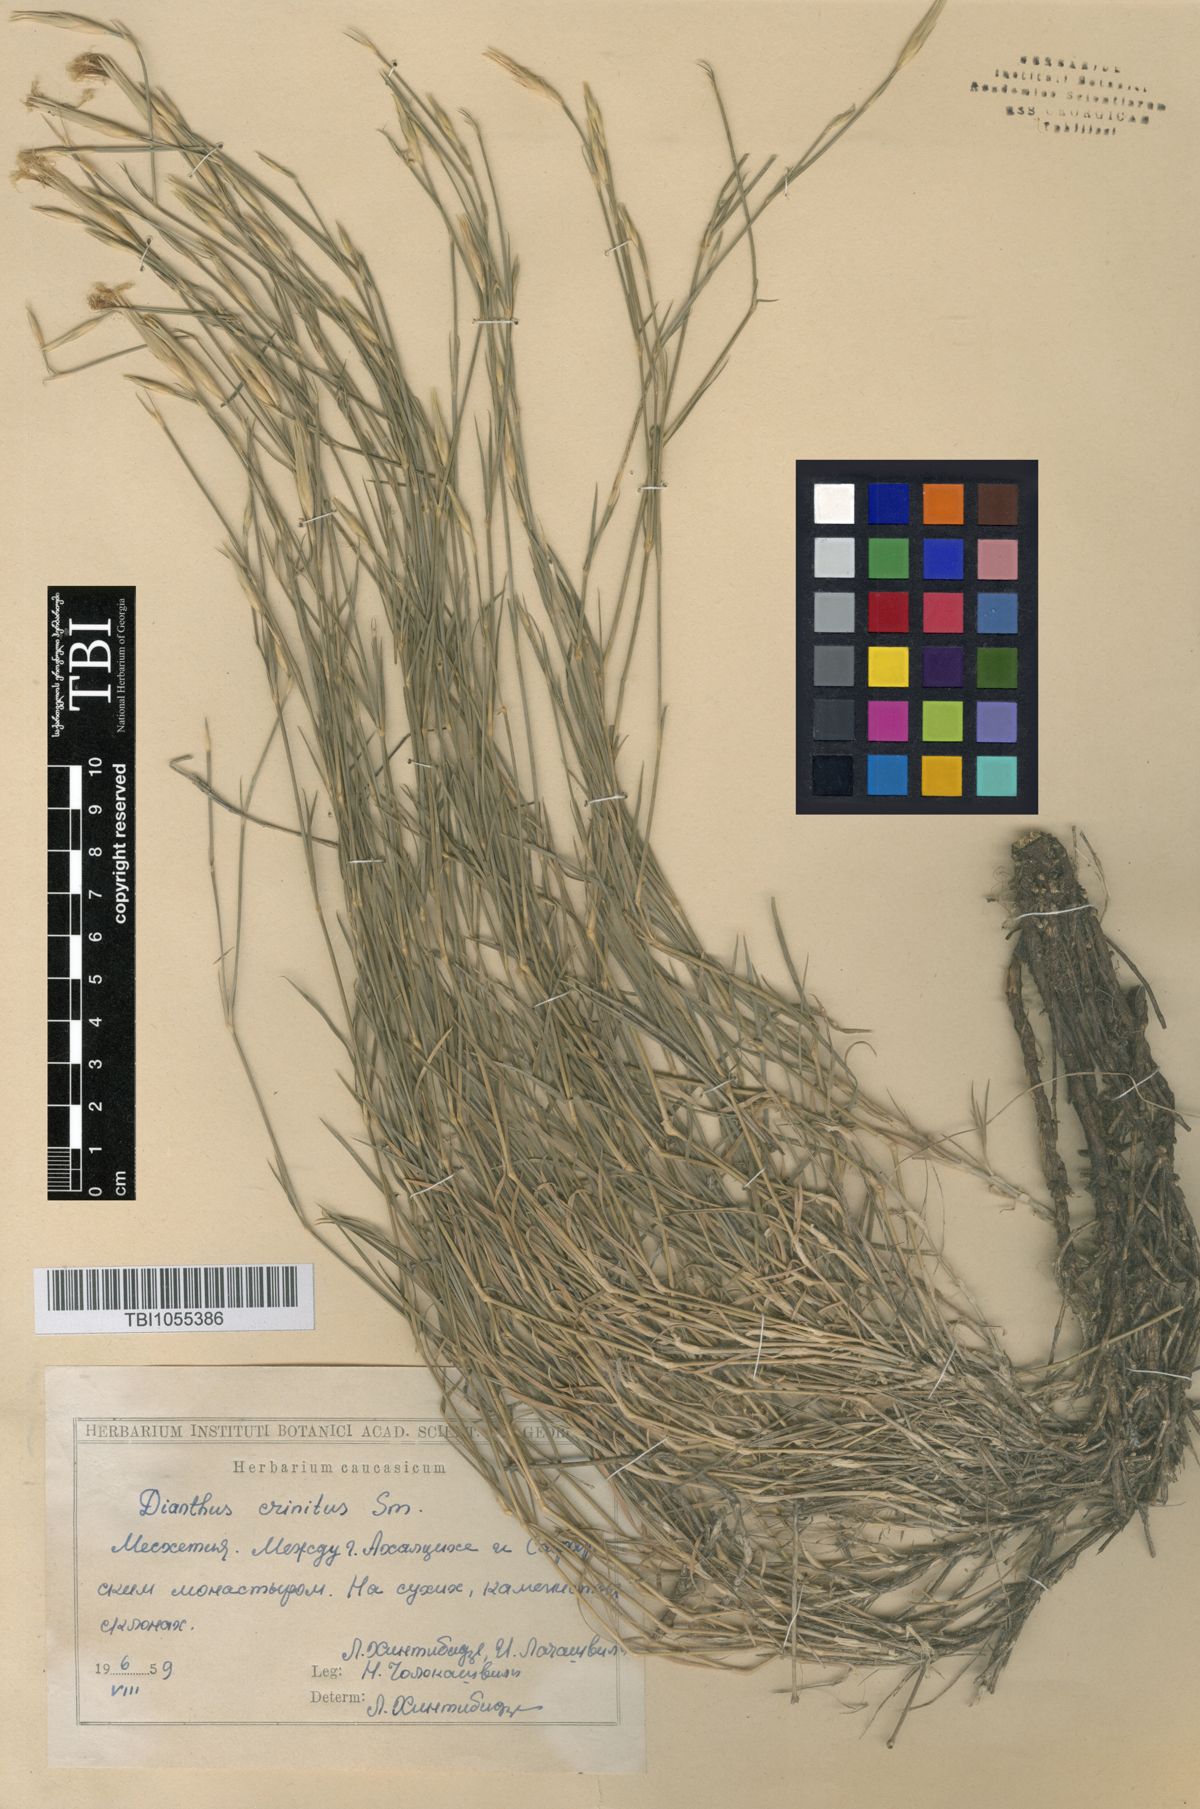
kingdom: Plantae
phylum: Tracheophyta
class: Magnoliopsida
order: Caryophyllales
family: Caryophyllaceae
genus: Dianthus
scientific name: Dianthus crinitus
